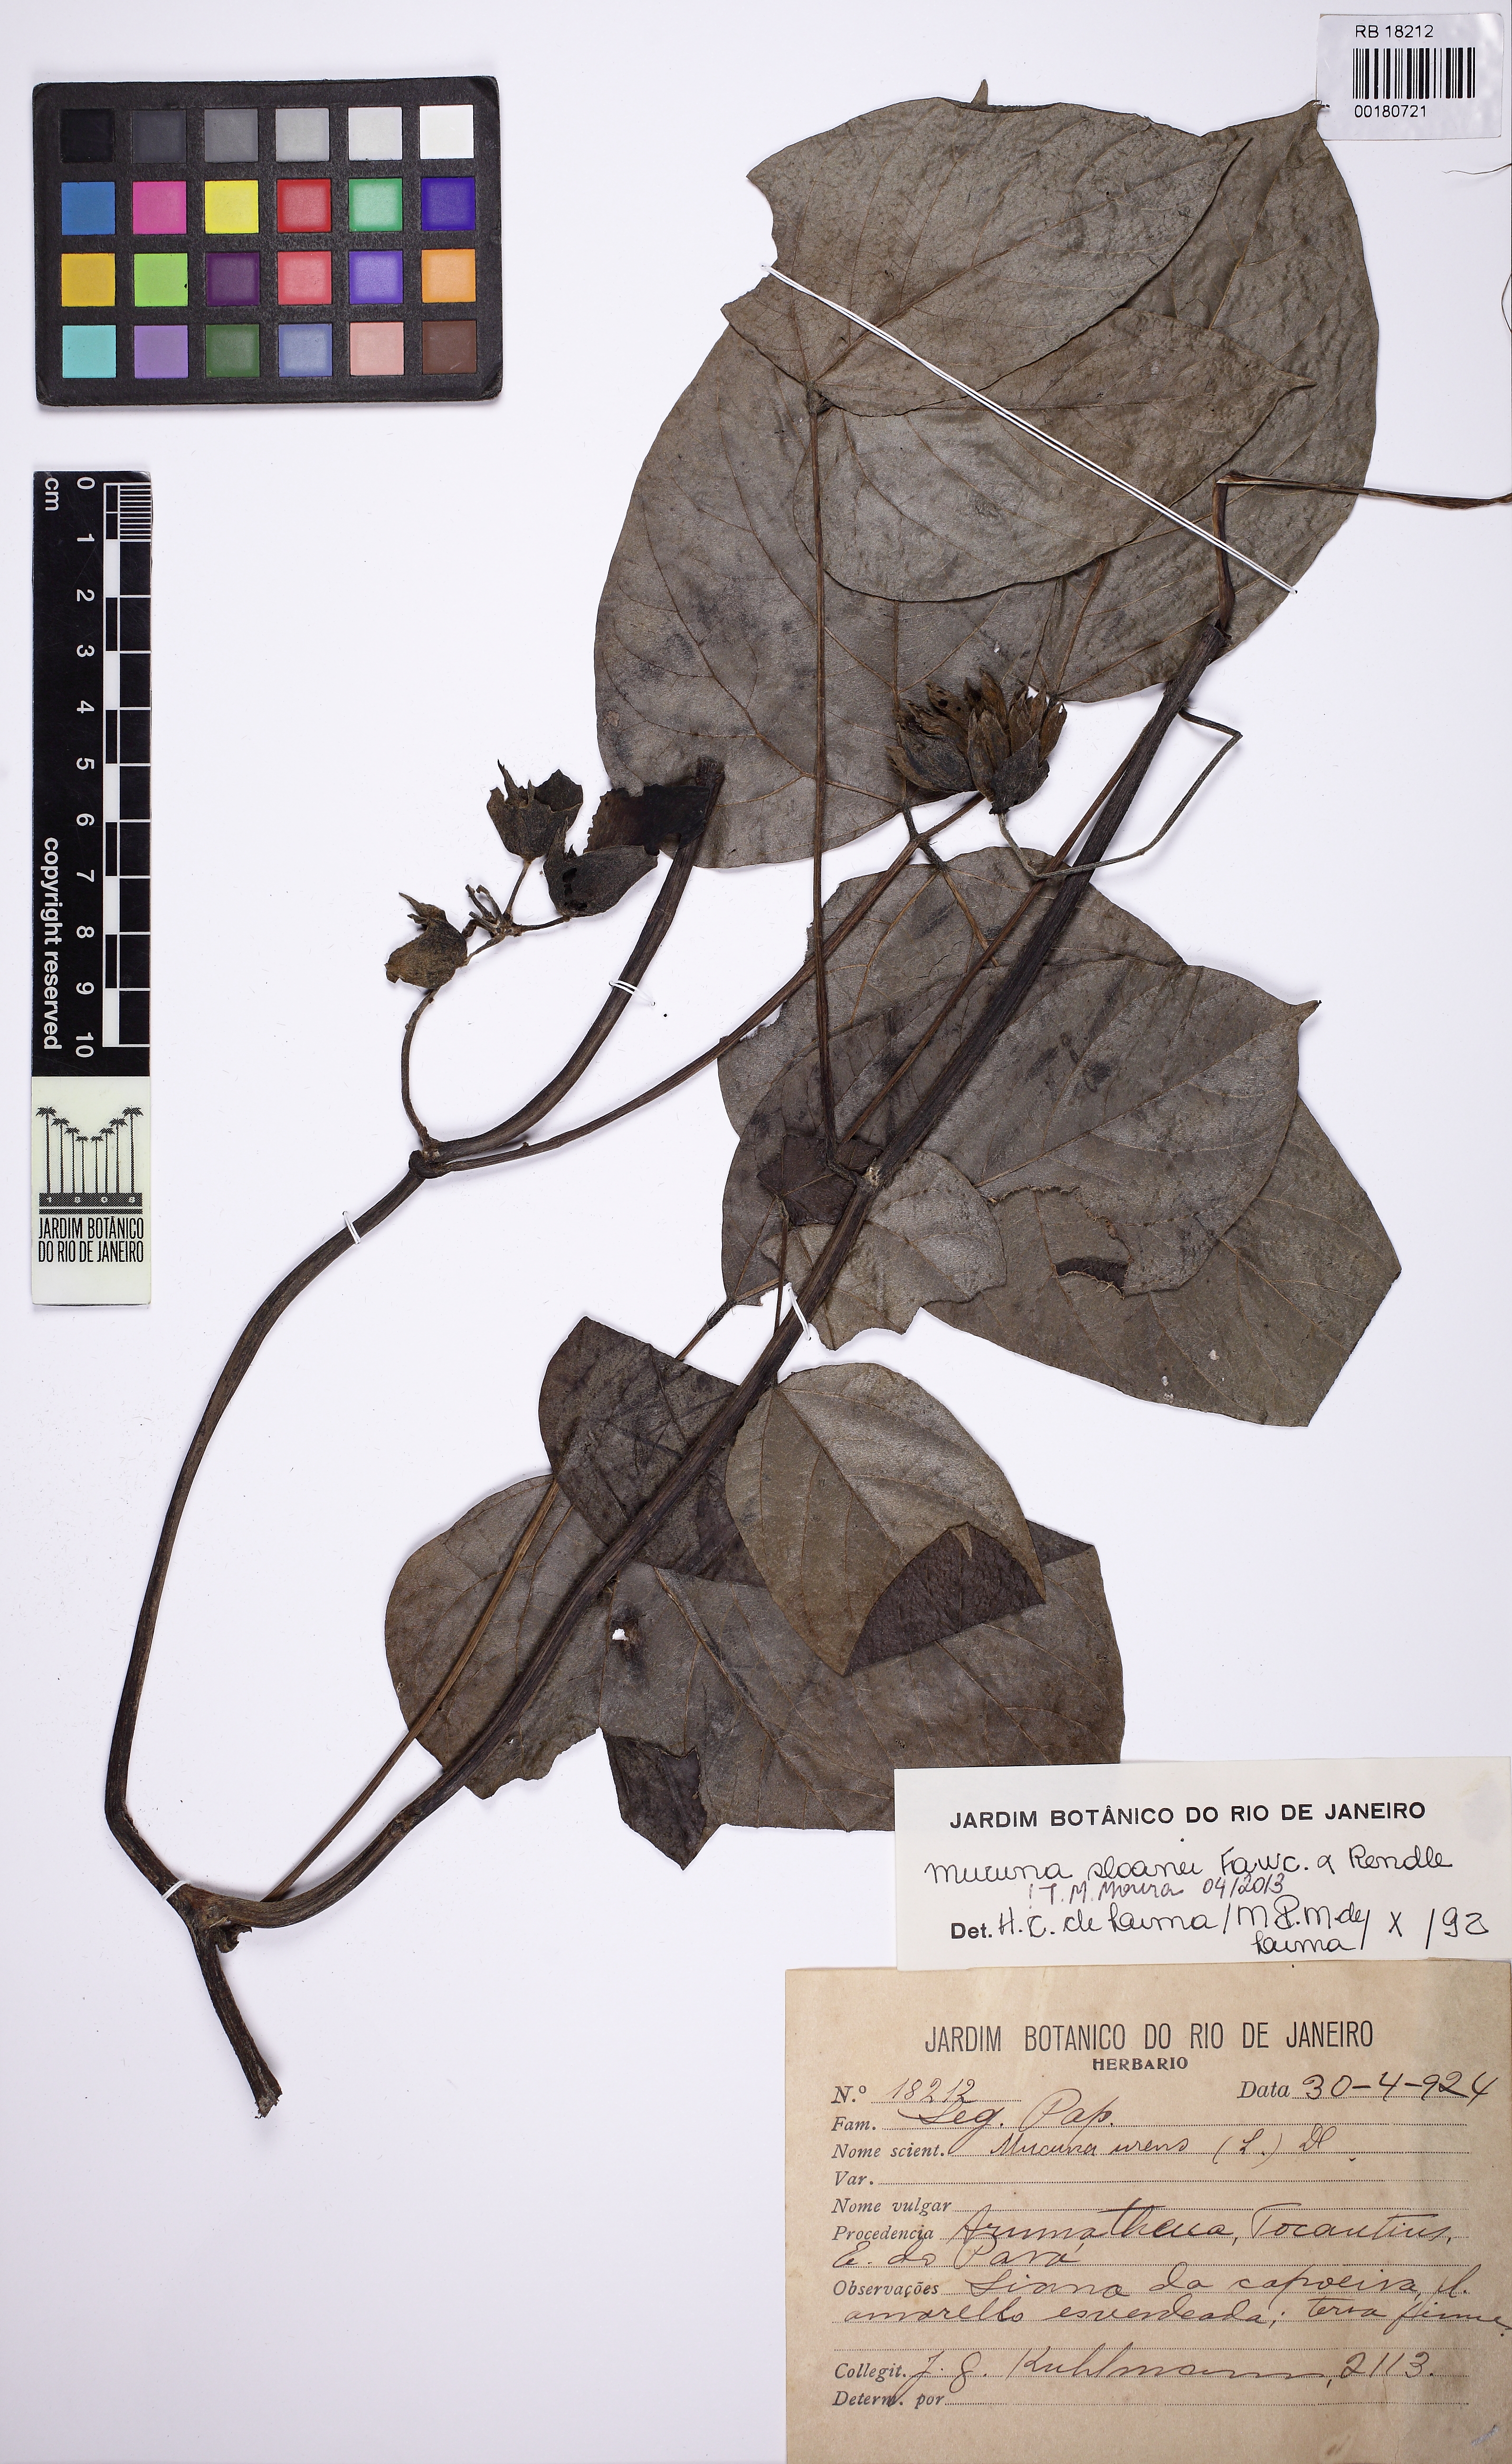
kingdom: Plantae
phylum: Tracheophyta
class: Magnoliopsida
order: Fabales
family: Fabaceae
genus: Mucuna
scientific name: Mucuna sloanei
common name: Horse-eye bean
